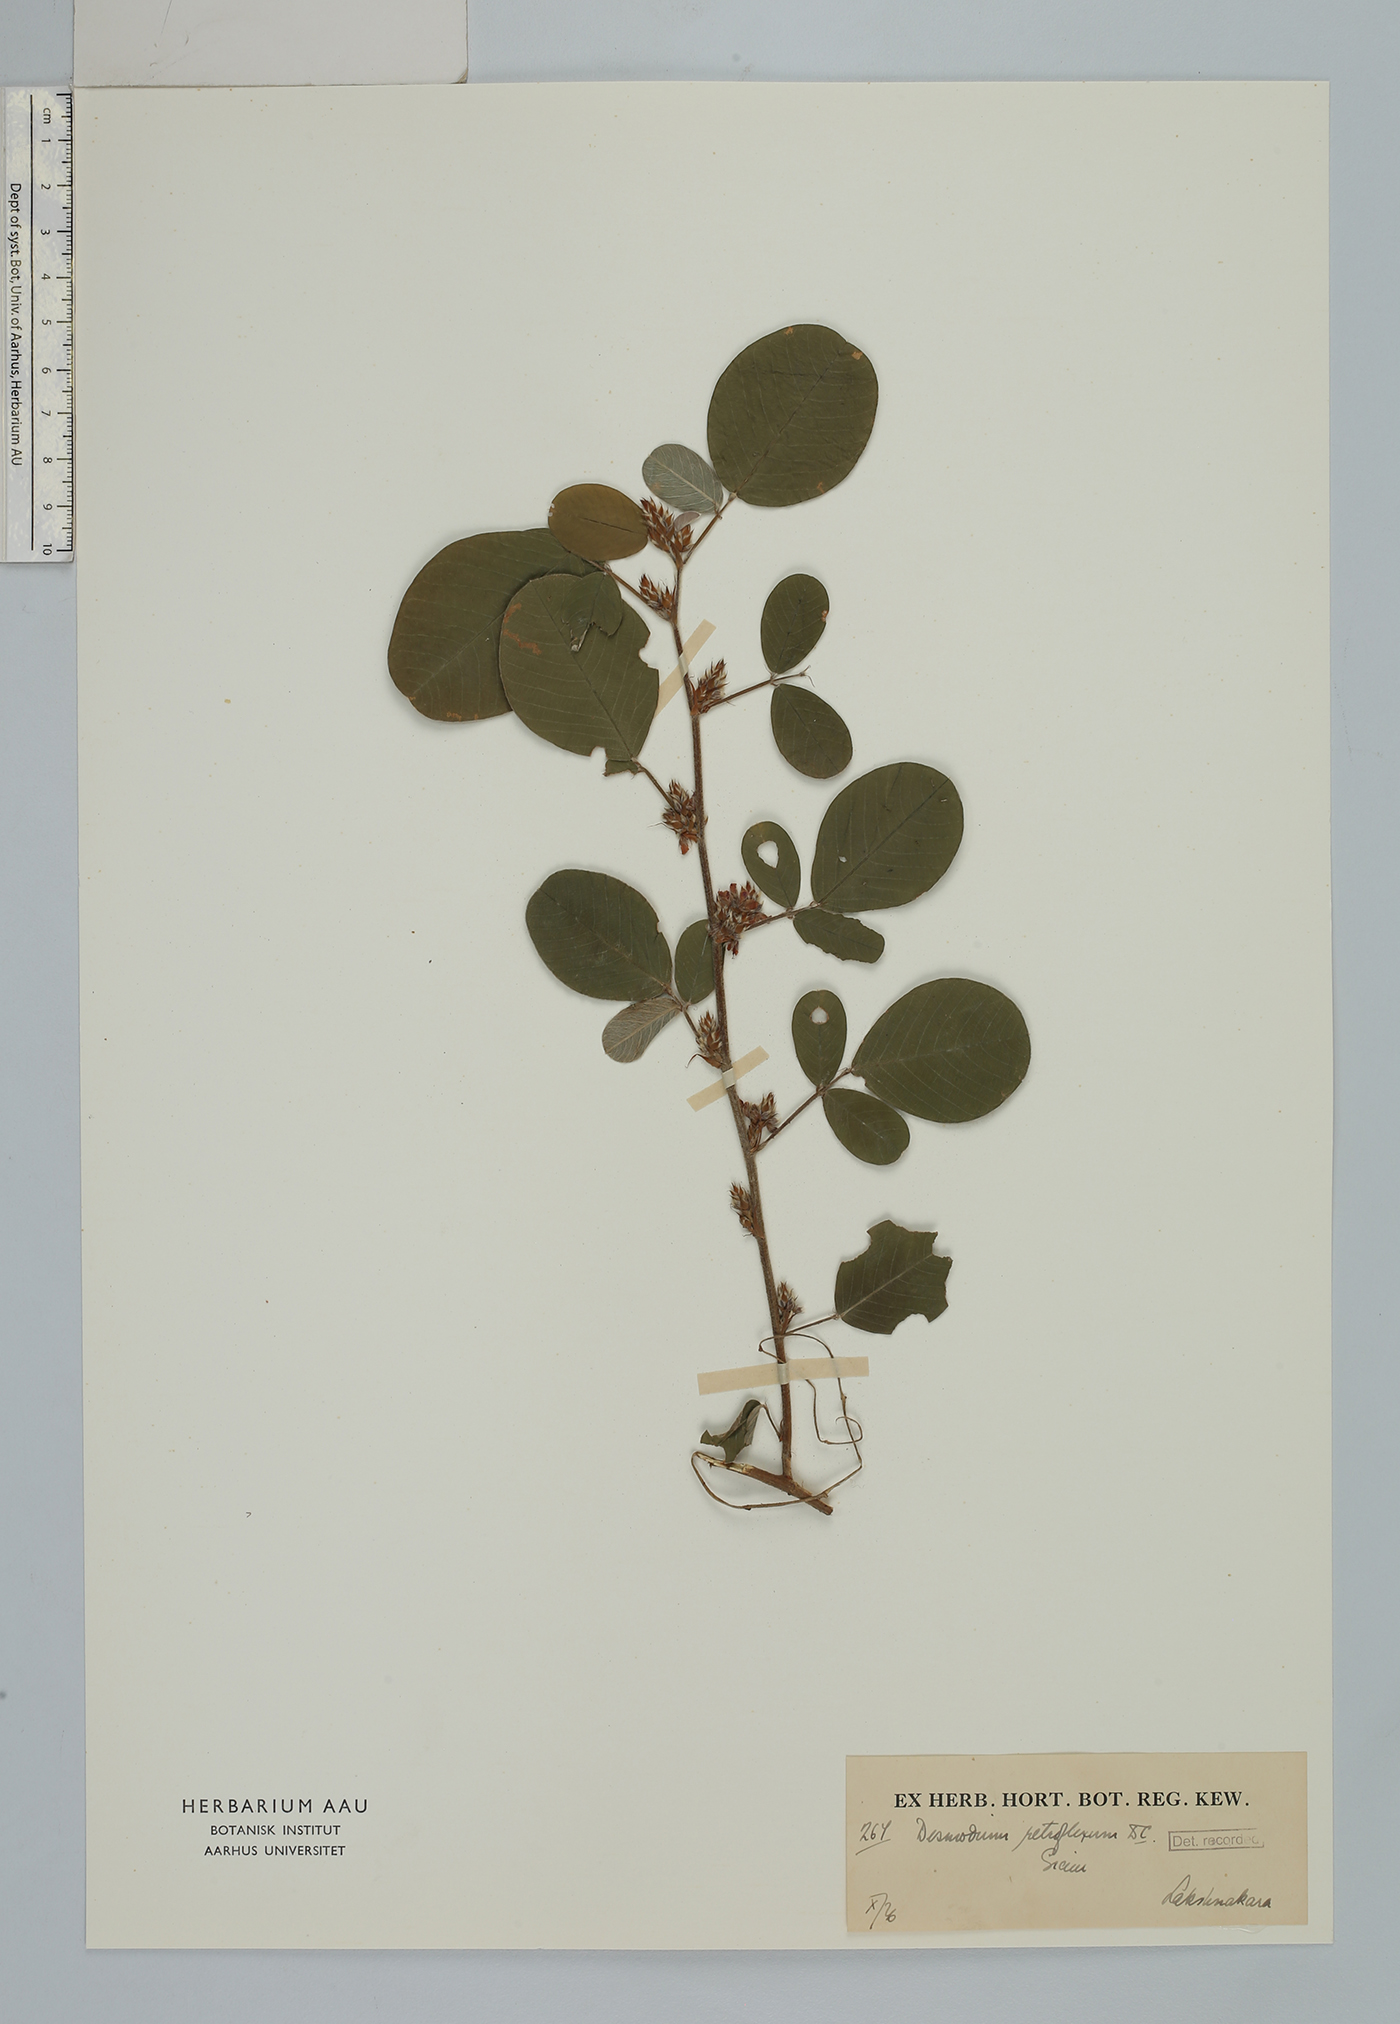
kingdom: Plantae
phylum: Tracheophyta
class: Magnoliopsida
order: Fabales
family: Fabaceae
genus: Grona
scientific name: Grona styracifolia
